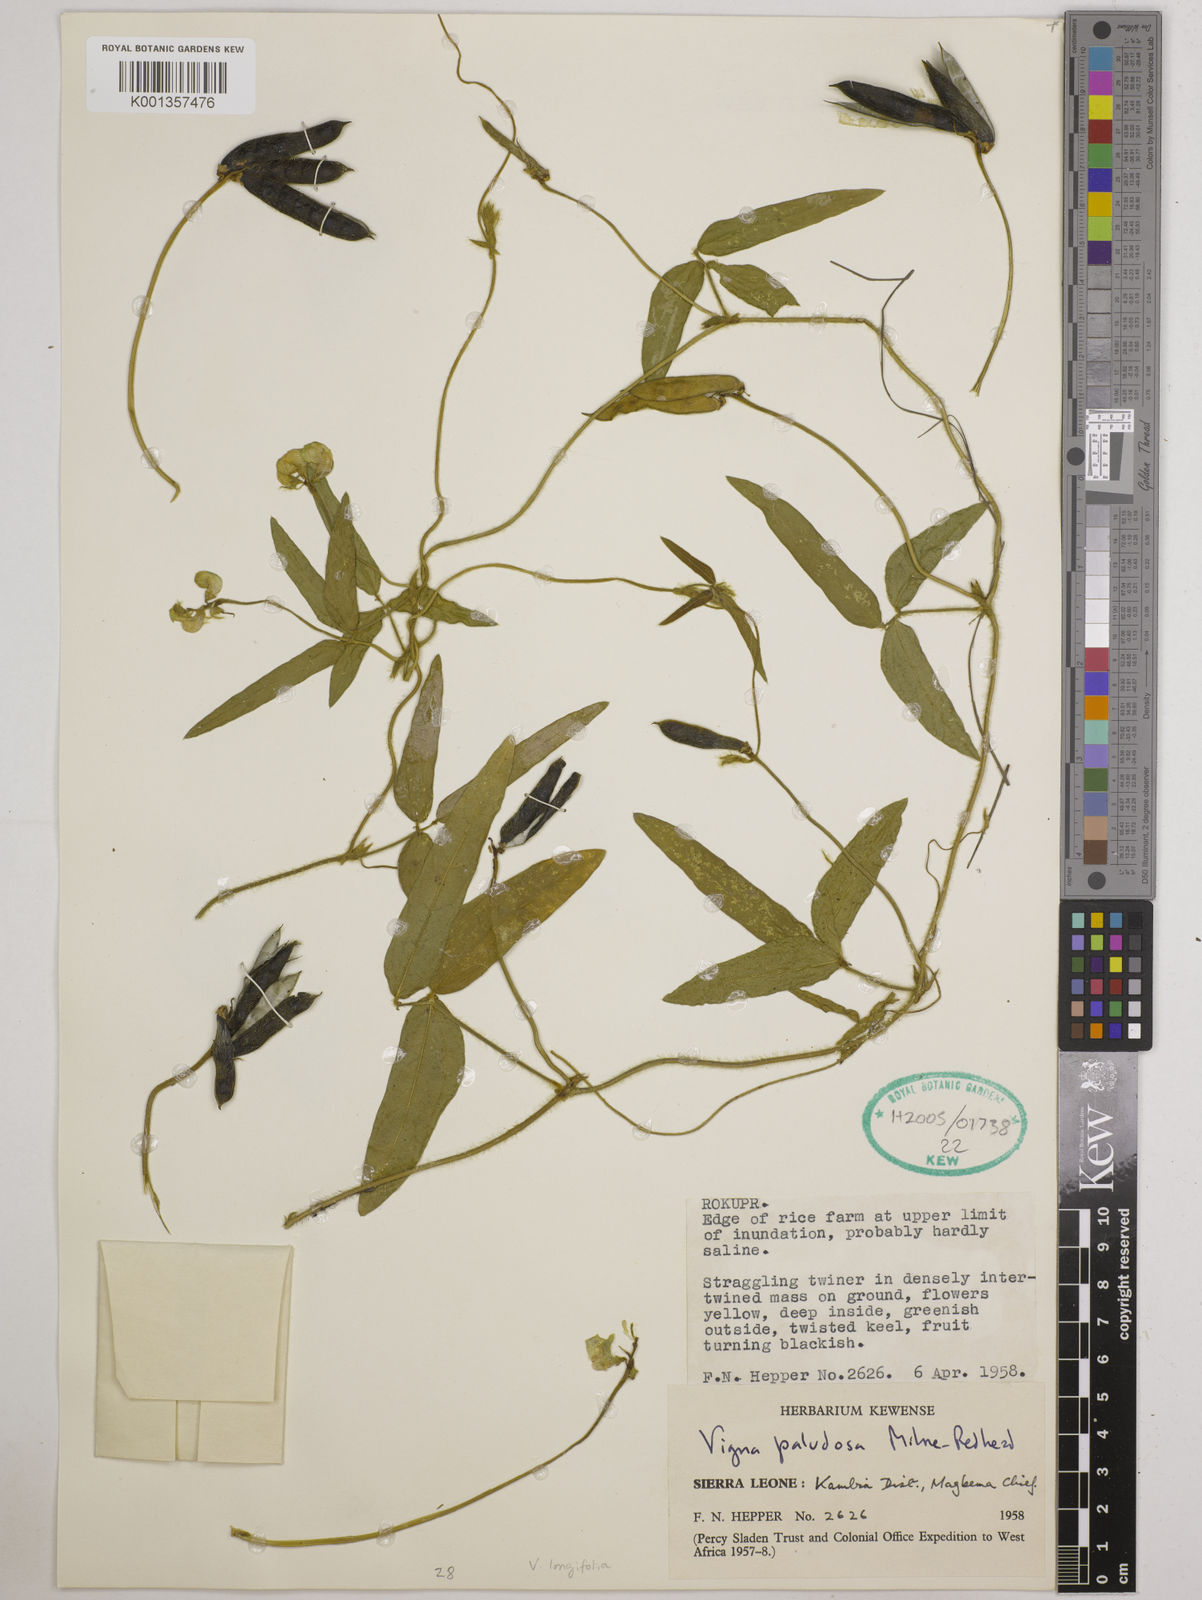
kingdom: Plantae
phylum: Tracheophyta
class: Magnoliopsida
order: Fabales
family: Fabaceae
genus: Vigna
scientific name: Vigna longifolia
